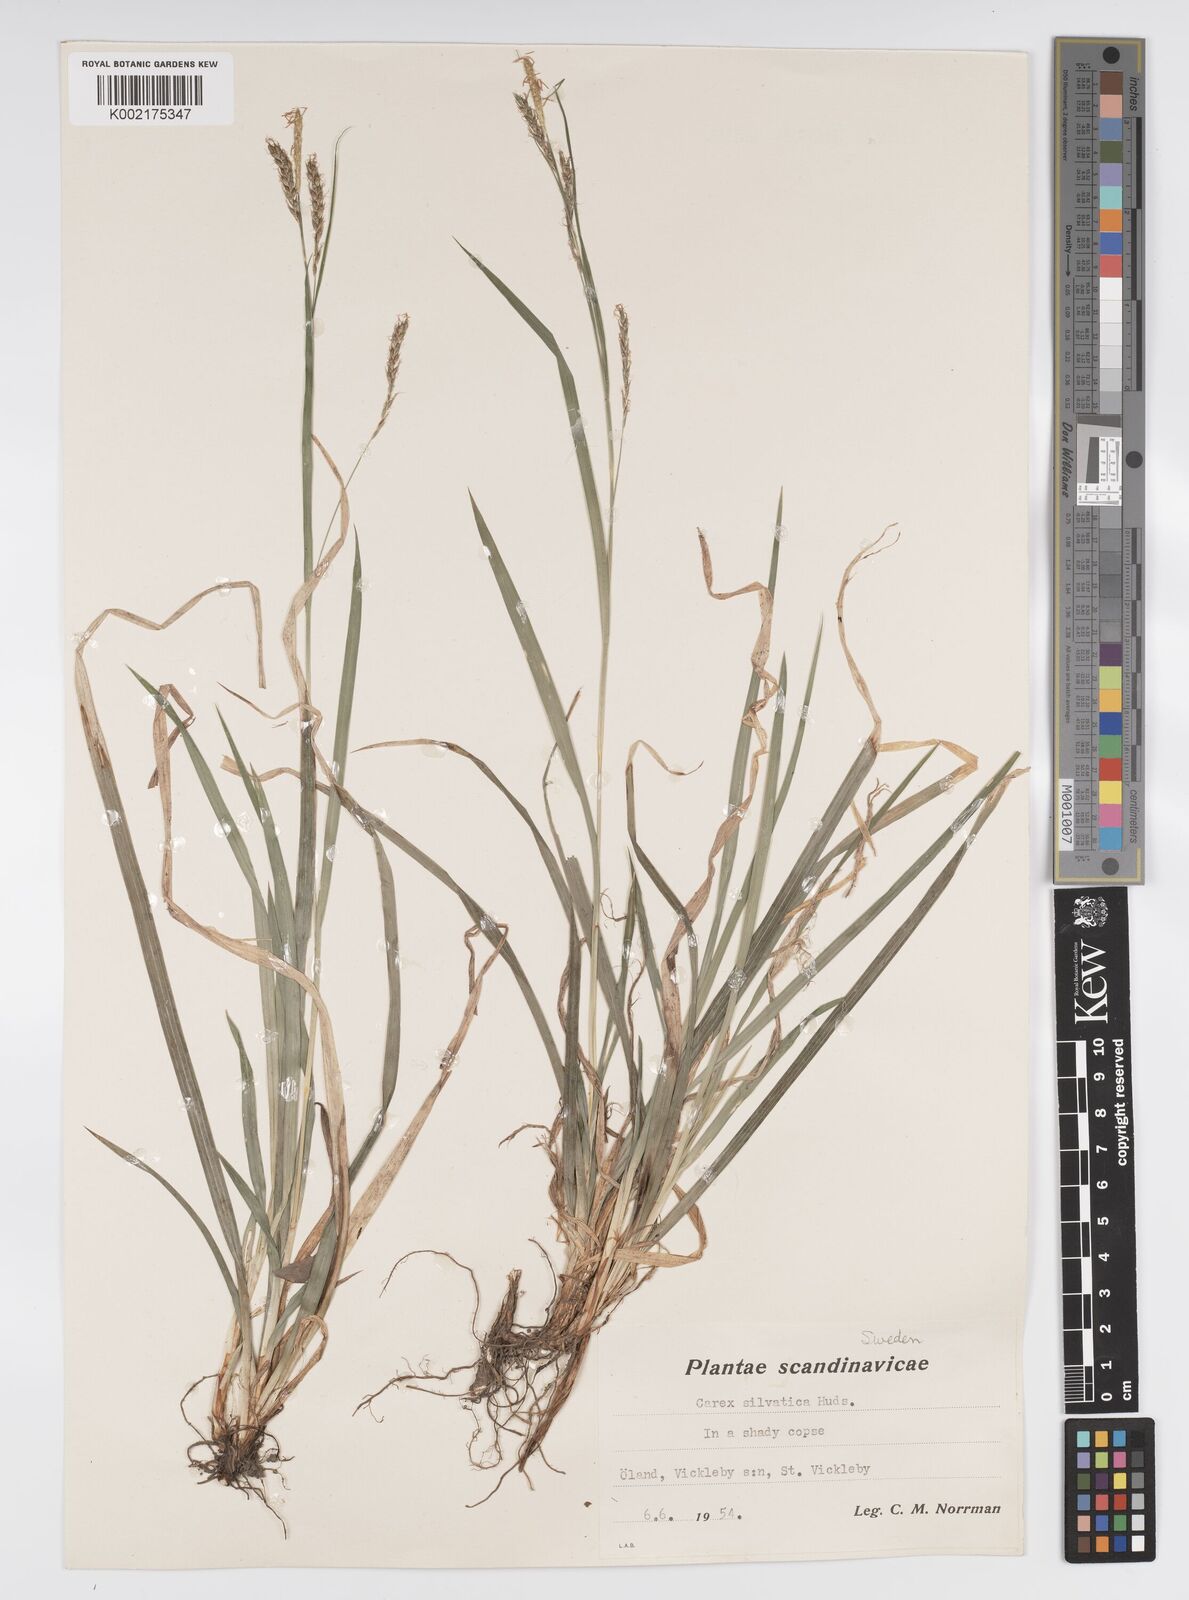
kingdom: Plantae
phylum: Tracheophyta
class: Liliopsida
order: Poales
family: Cyperaceae
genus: Carex
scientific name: Carex sylvatica
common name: Wood-sedge
